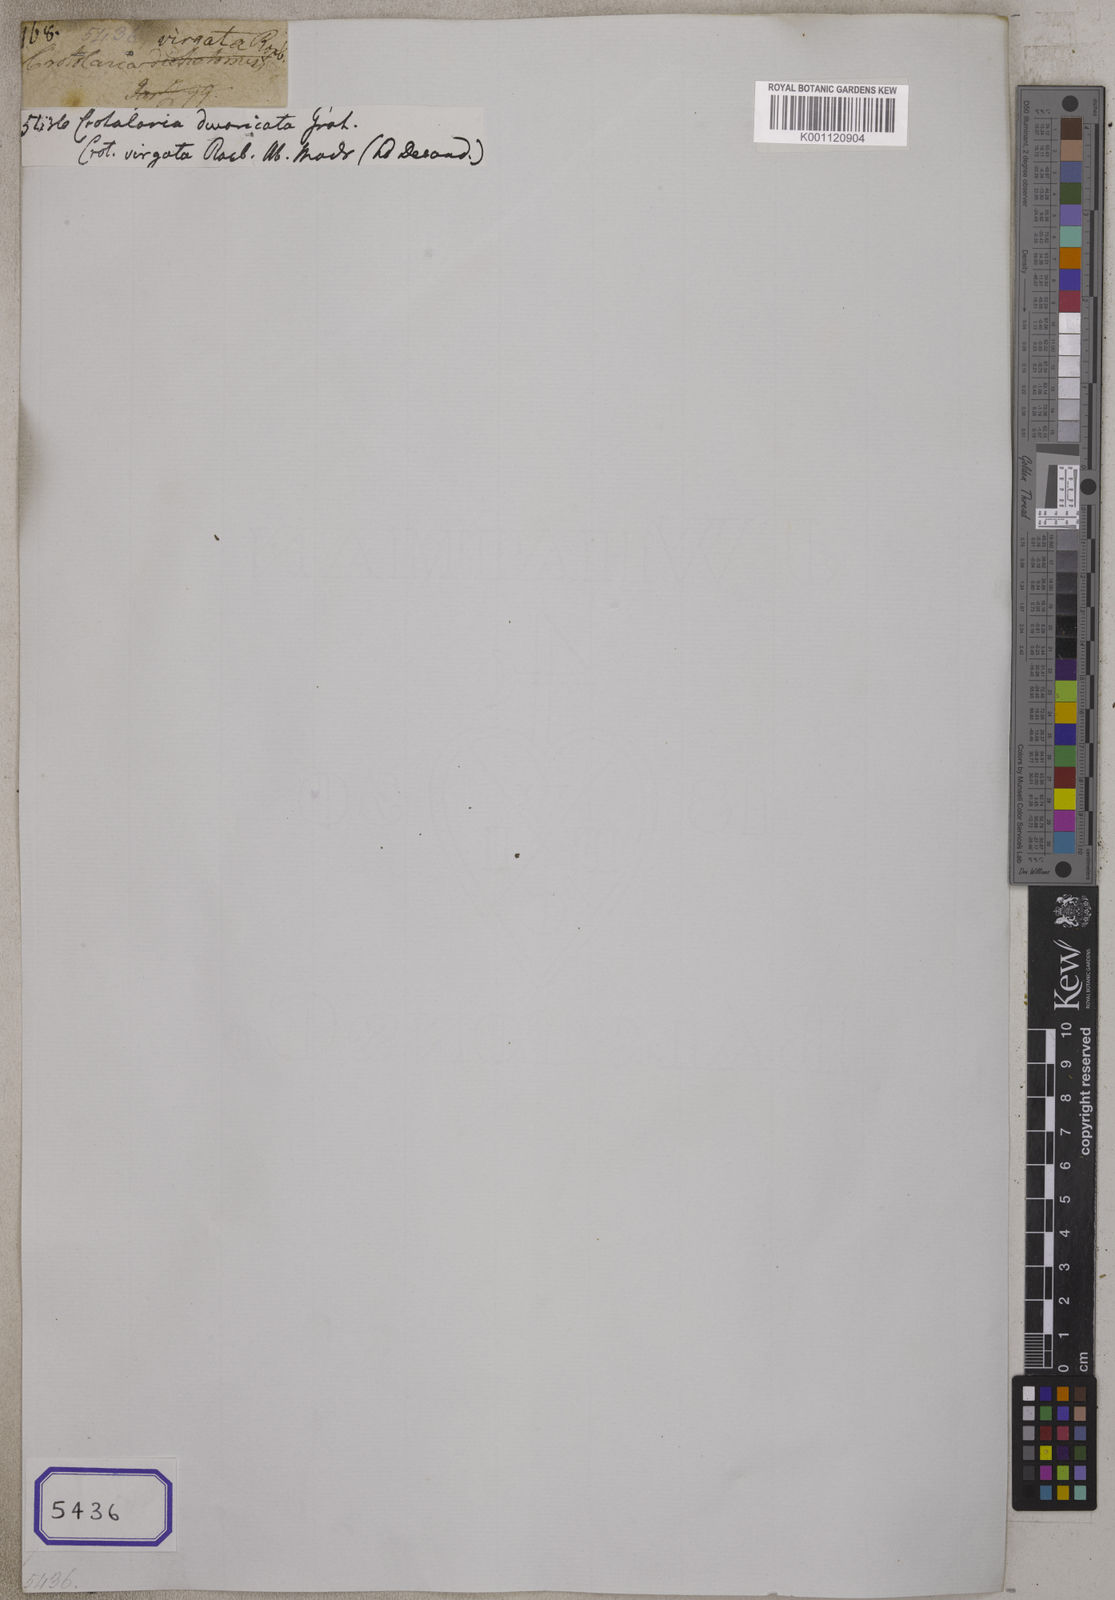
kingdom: Plantae
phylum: Tracheophyta
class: Magnoliopsida
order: Fabales
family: Fabaceae
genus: Crotalaria
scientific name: Crotalaria
